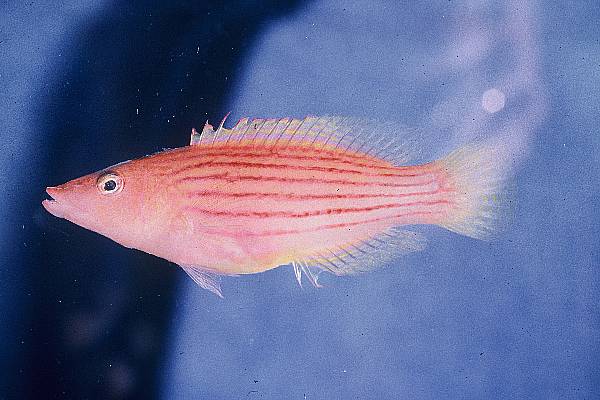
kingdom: Animalia
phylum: Chordata
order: Perciformes
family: Labridae
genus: Pseudocheilinus
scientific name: Pseudocheilinus octotaenia
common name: Eightline wrasse
